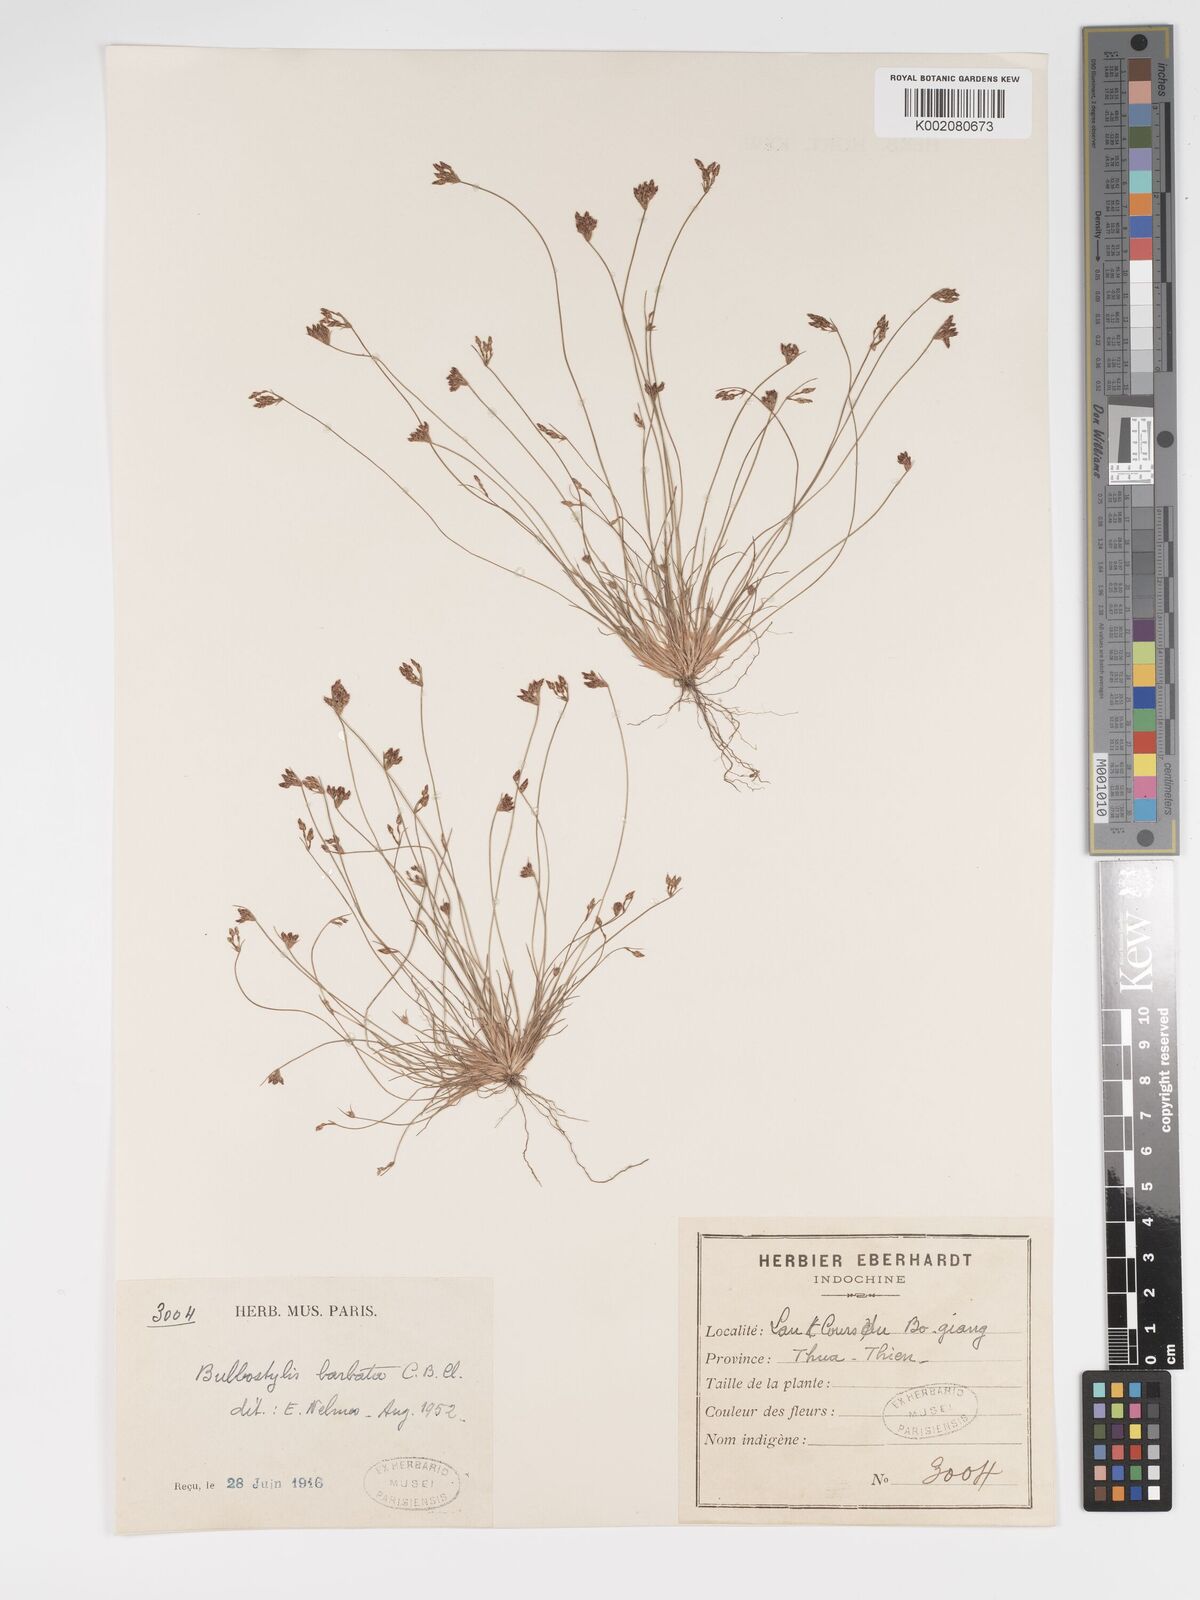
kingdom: Plantae
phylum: Tracheophyta
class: Liliopsida
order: Poales
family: Cyperaceae
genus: Bulbostylis
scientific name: Bulbostylis barbata
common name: Watergrass
